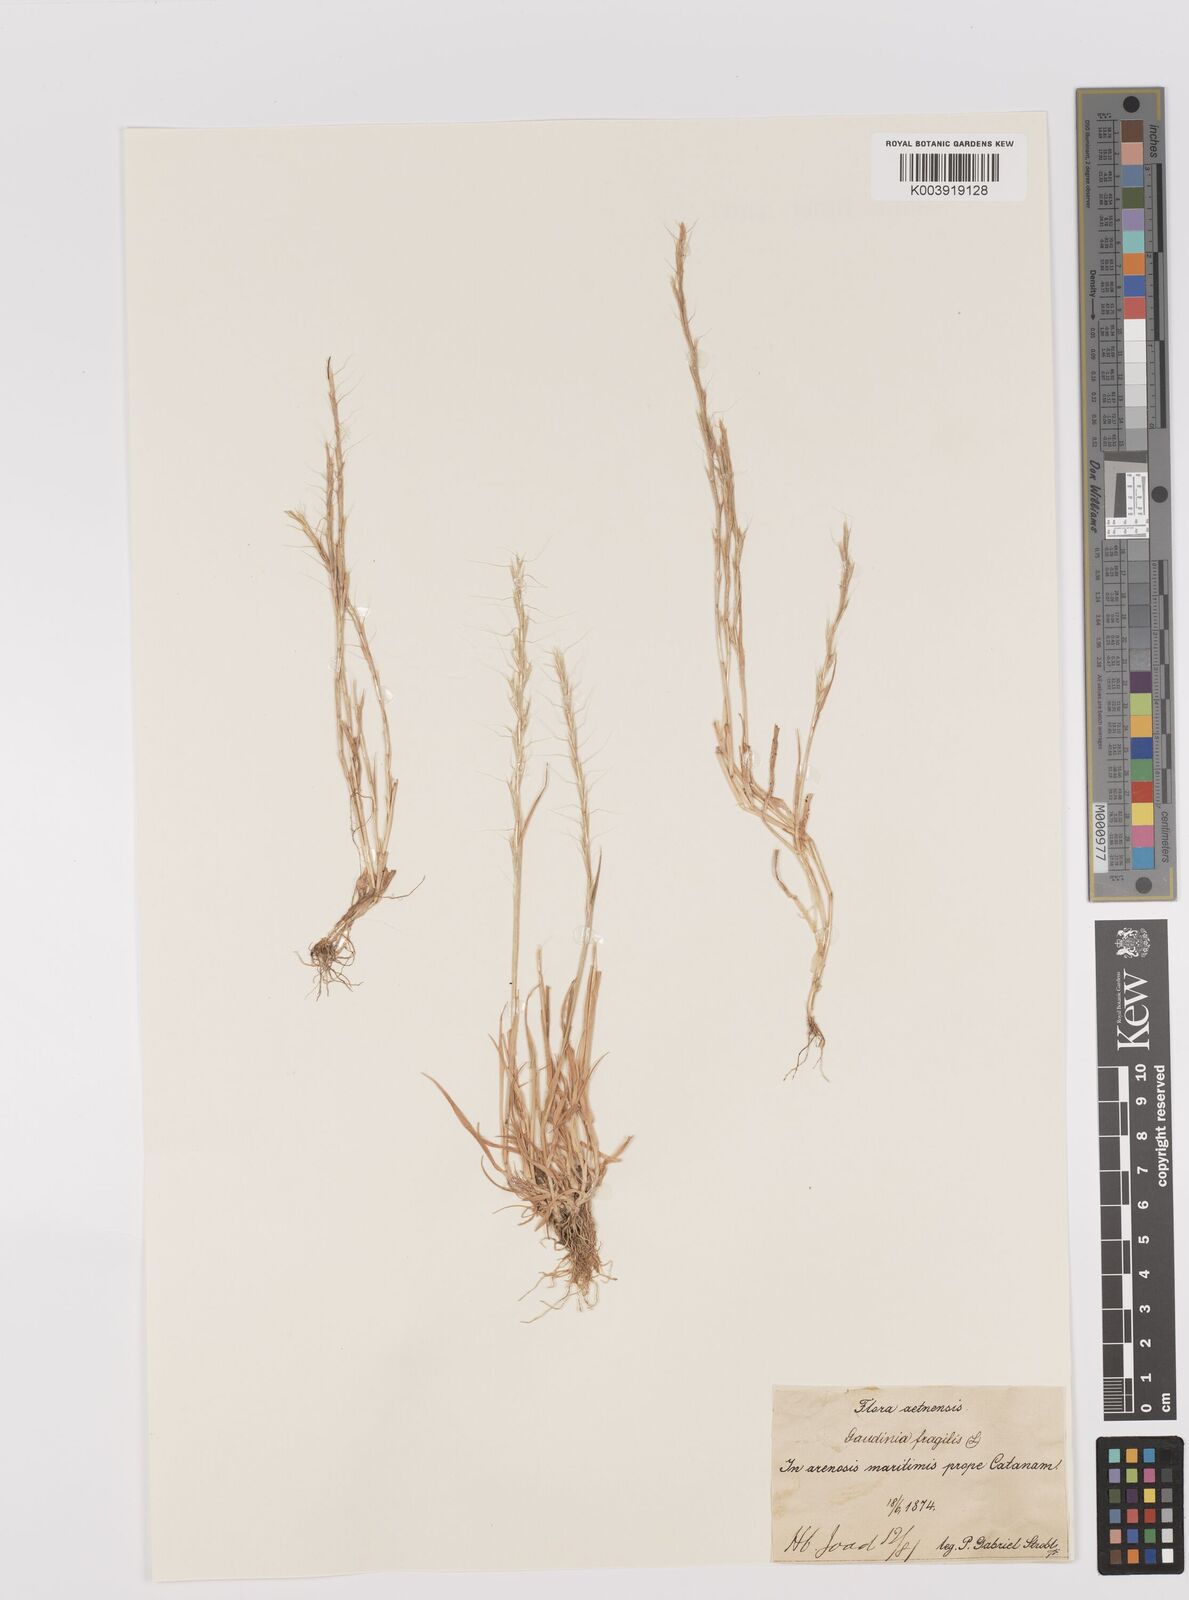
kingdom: Plantae
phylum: Tracheophyta
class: Liliopsida
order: Poales
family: Poaceae
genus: Gaudinia
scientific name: Gaudinia fragilis
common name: French oat-grass
